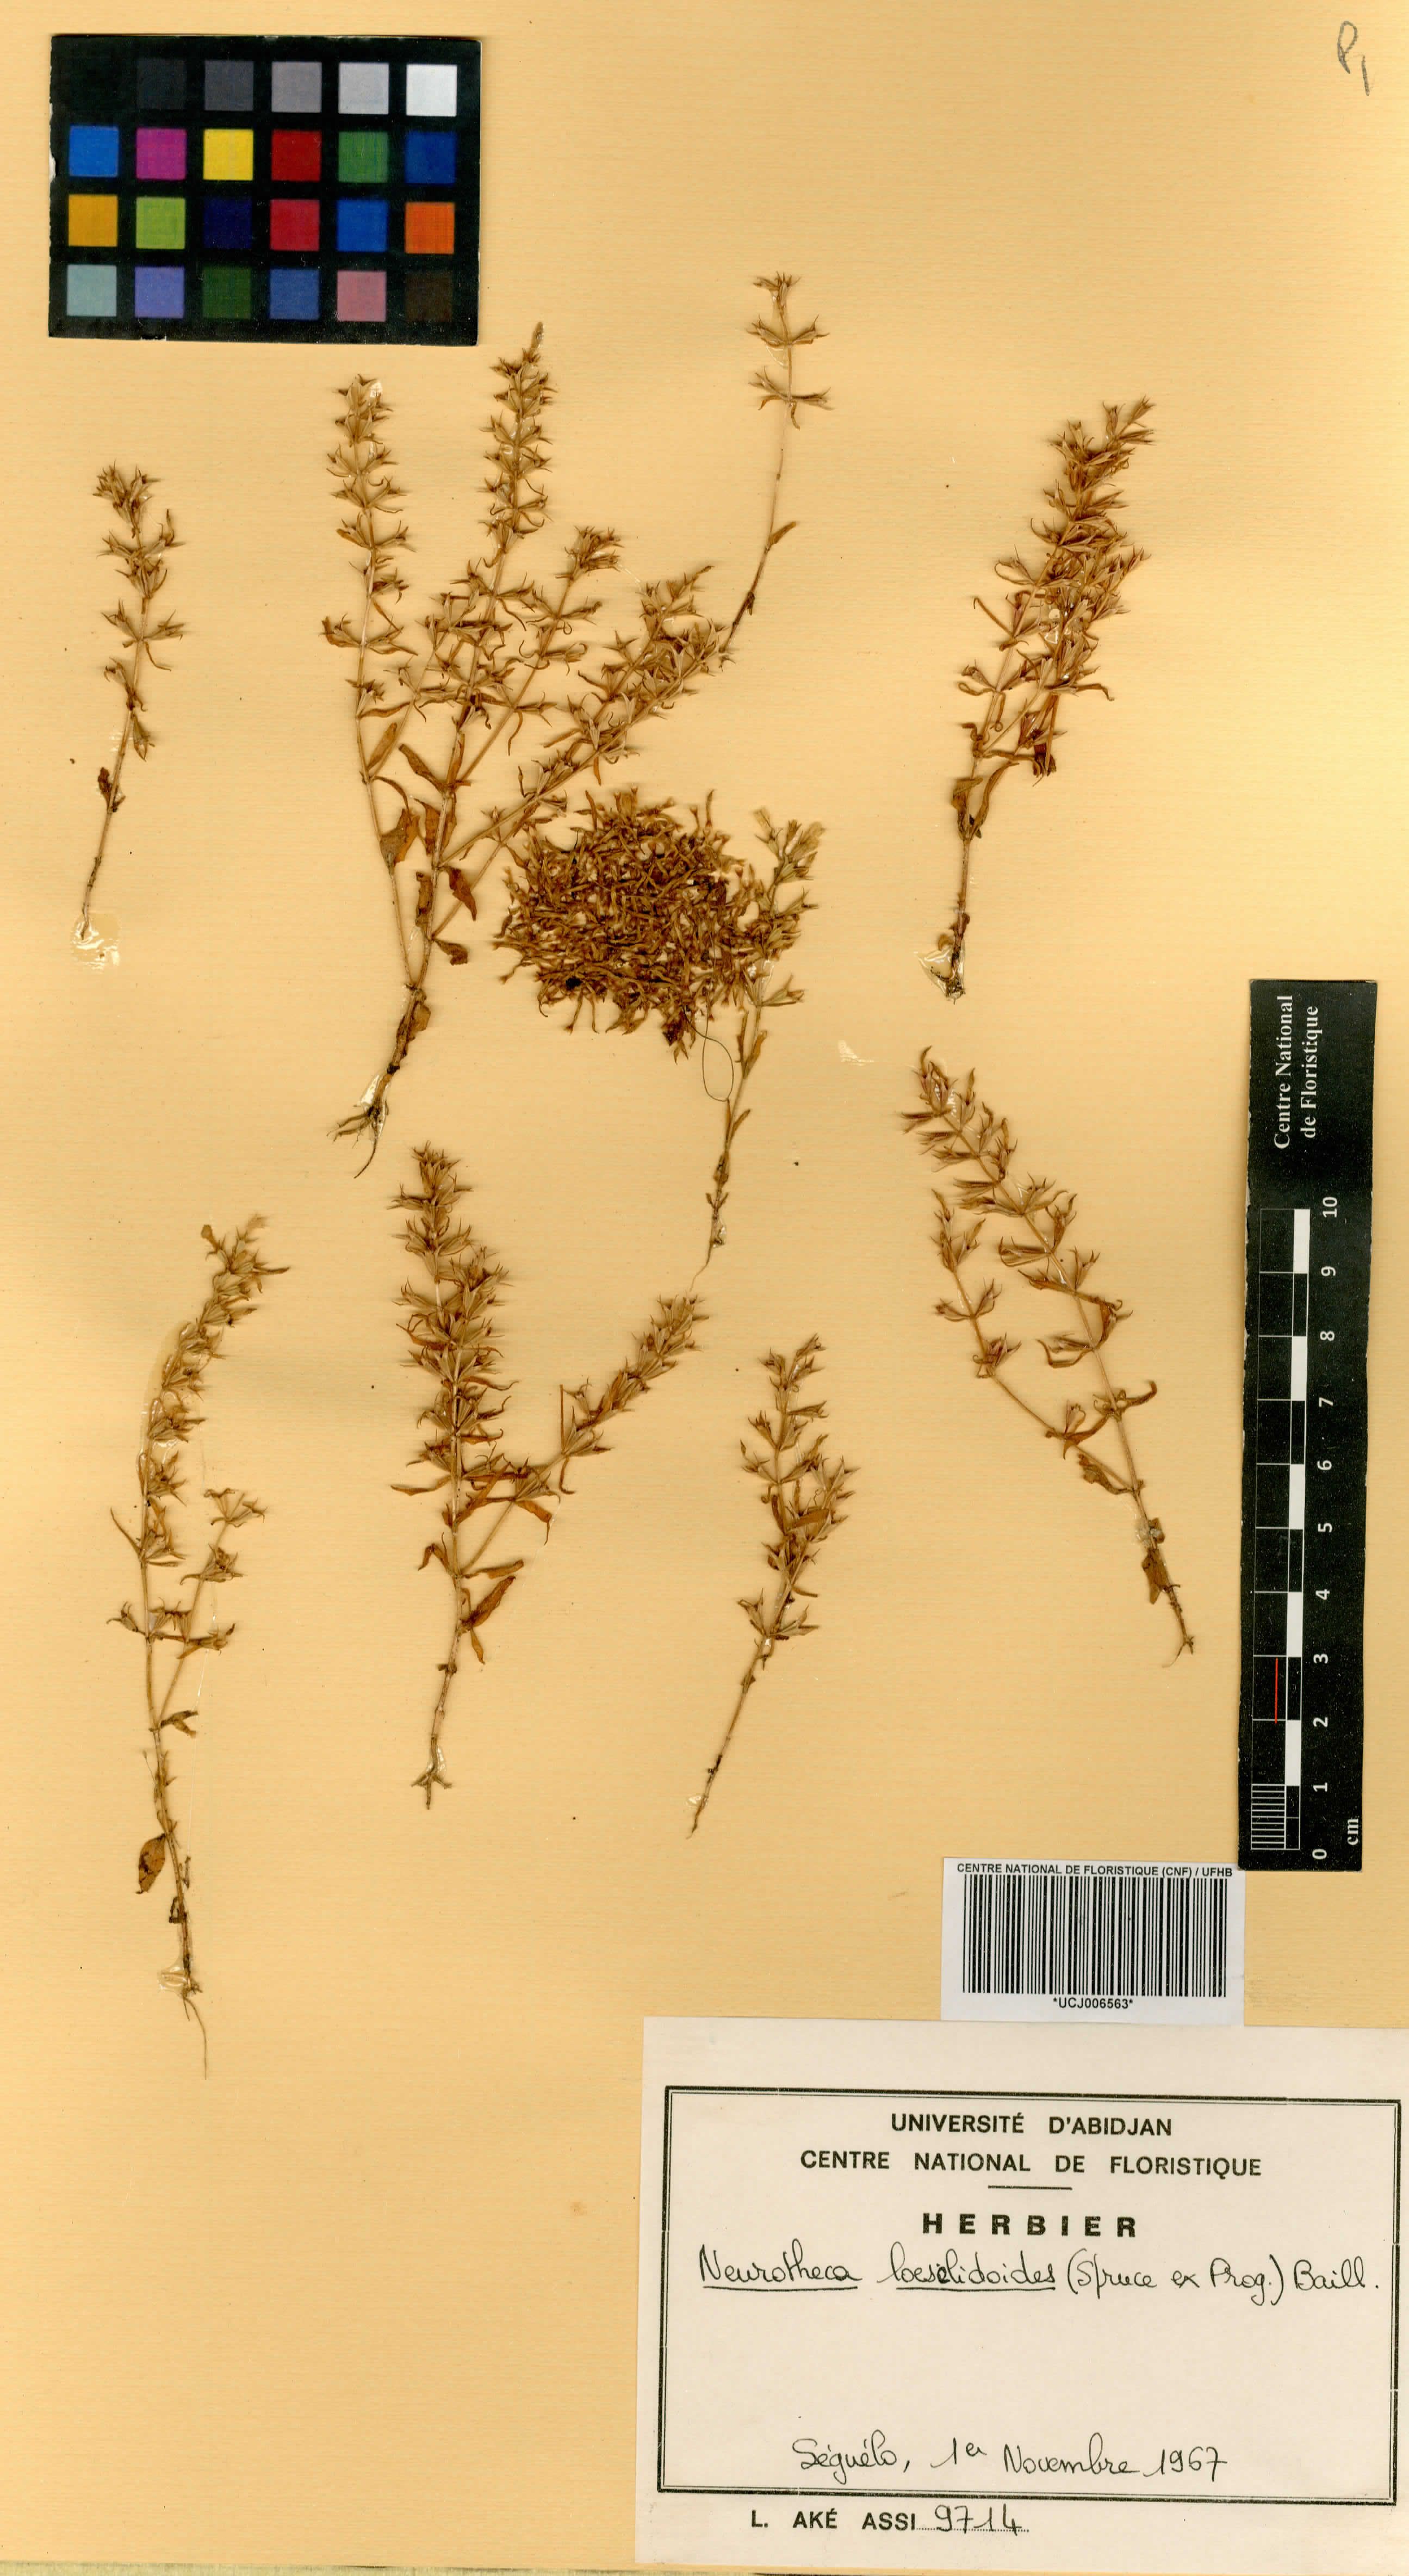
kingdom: Plantae
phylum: Tracheophyta
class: Magnoliopsida
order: Gentianales
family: Gentianaceae
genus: Neurotheca
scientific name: Neurotheca loeselioides
